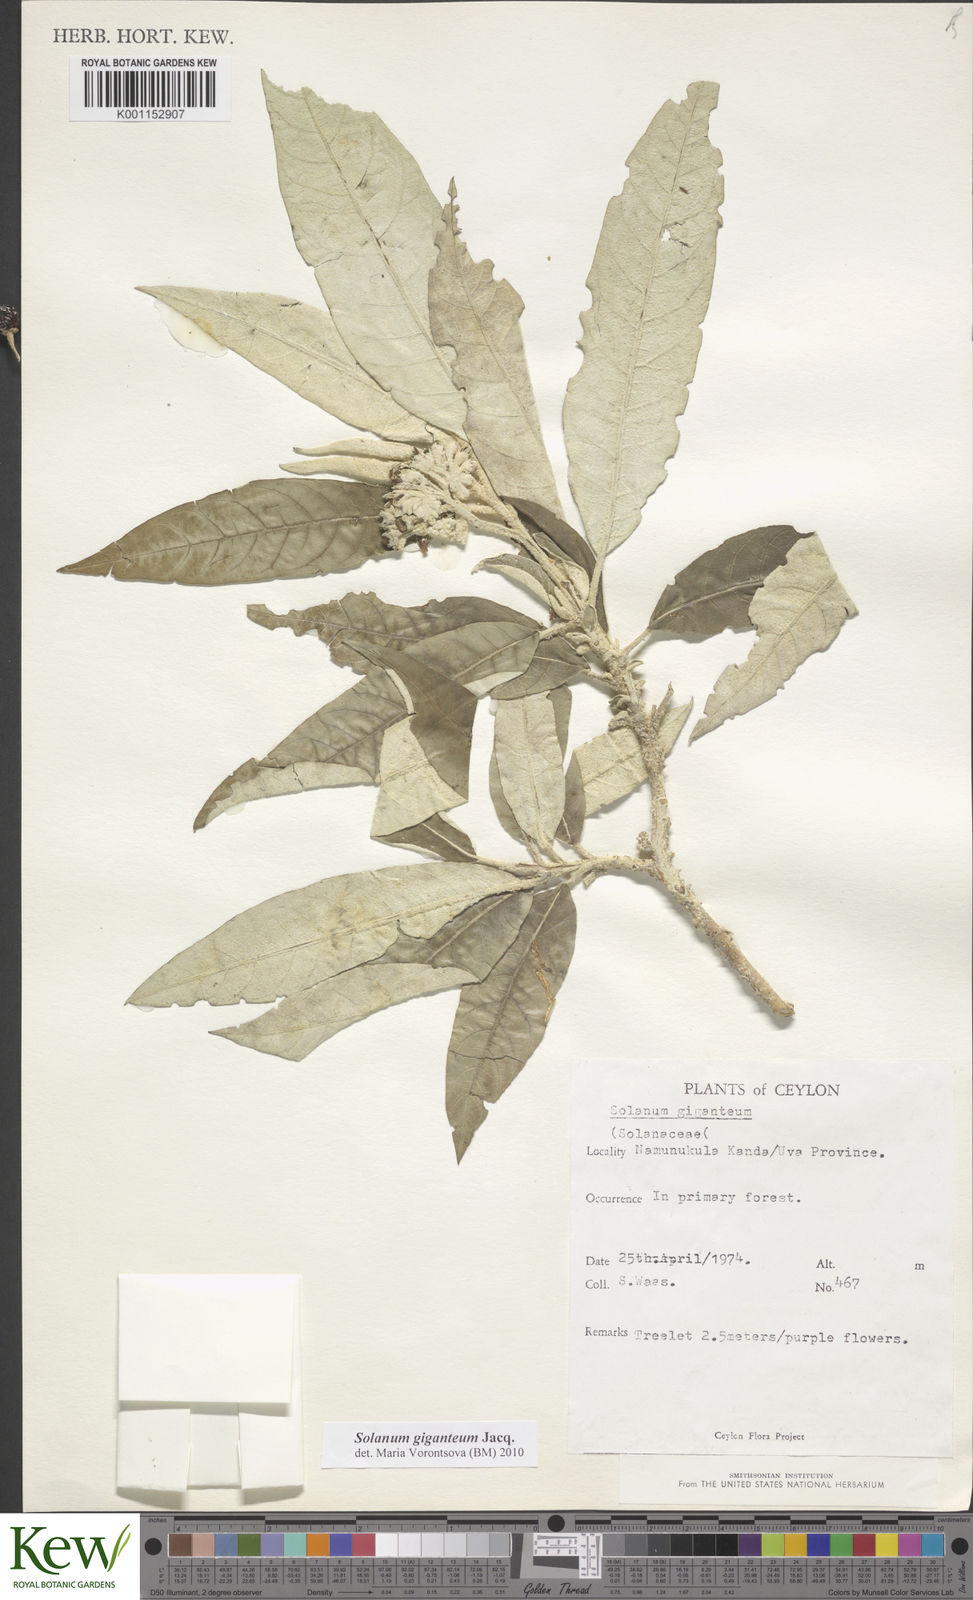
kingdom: Plantae
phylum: Tracheophyta
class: Magnoliopsida
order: Solanales
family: Solanaceae
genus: Solanum
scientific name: Solanum giganteum
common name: Healing-leaf-tree
